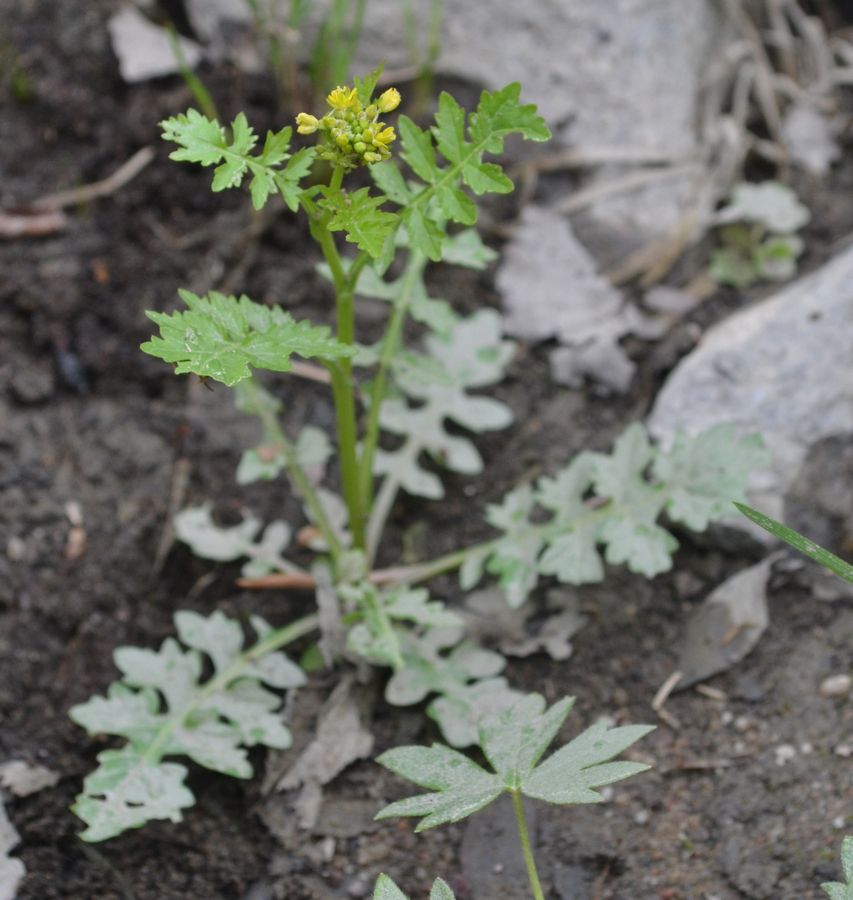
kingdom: Plantae
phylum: Tracheophyta
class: Magnoliopsida
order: Brassicales
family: Brassicaceae
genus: Rorippa
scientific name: Rorippa palustris
